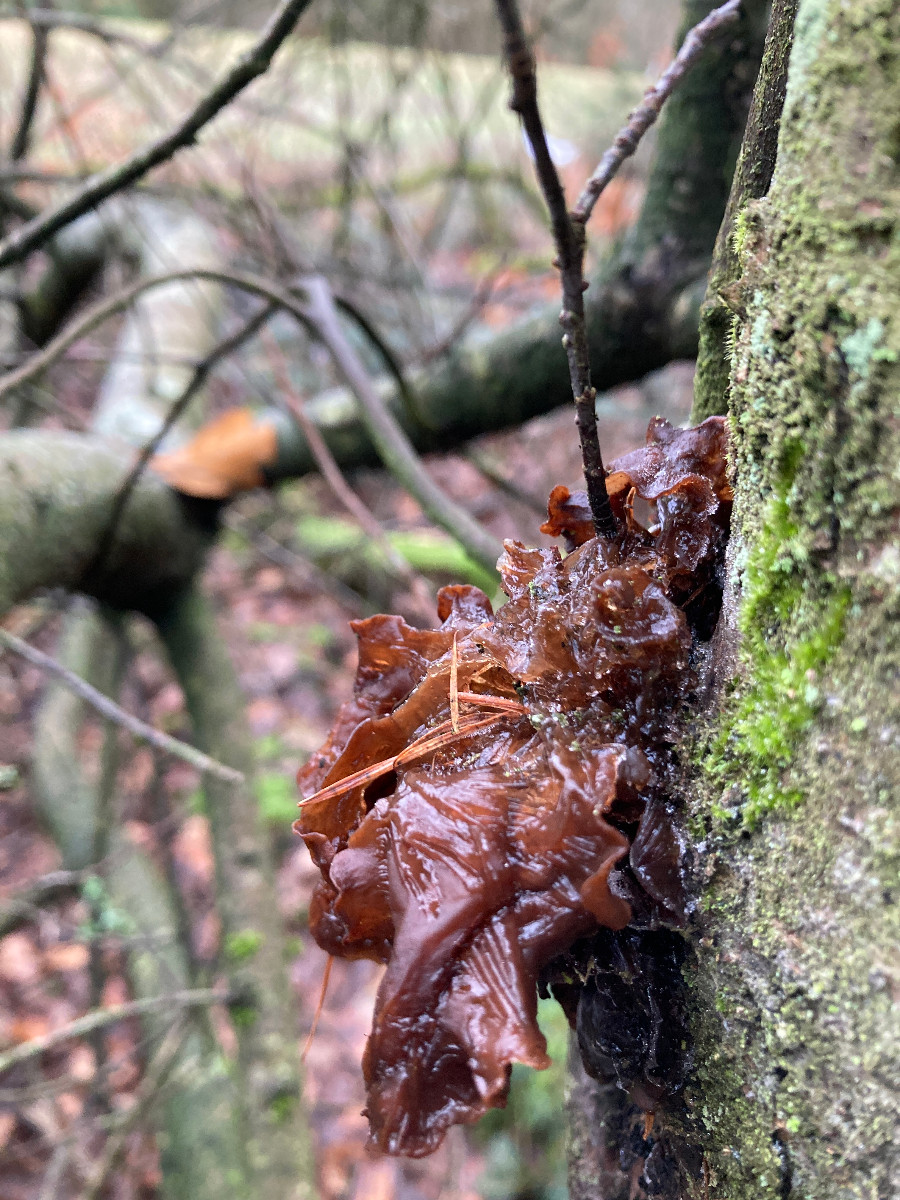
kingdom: Fungi
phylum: Basidiomycota
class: Tremellomycetes
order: Tremellales
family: Tremellaceae
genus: Phaeotremella
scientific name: Phaeotremella frondosa
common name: kæmpe-bævresvamp
